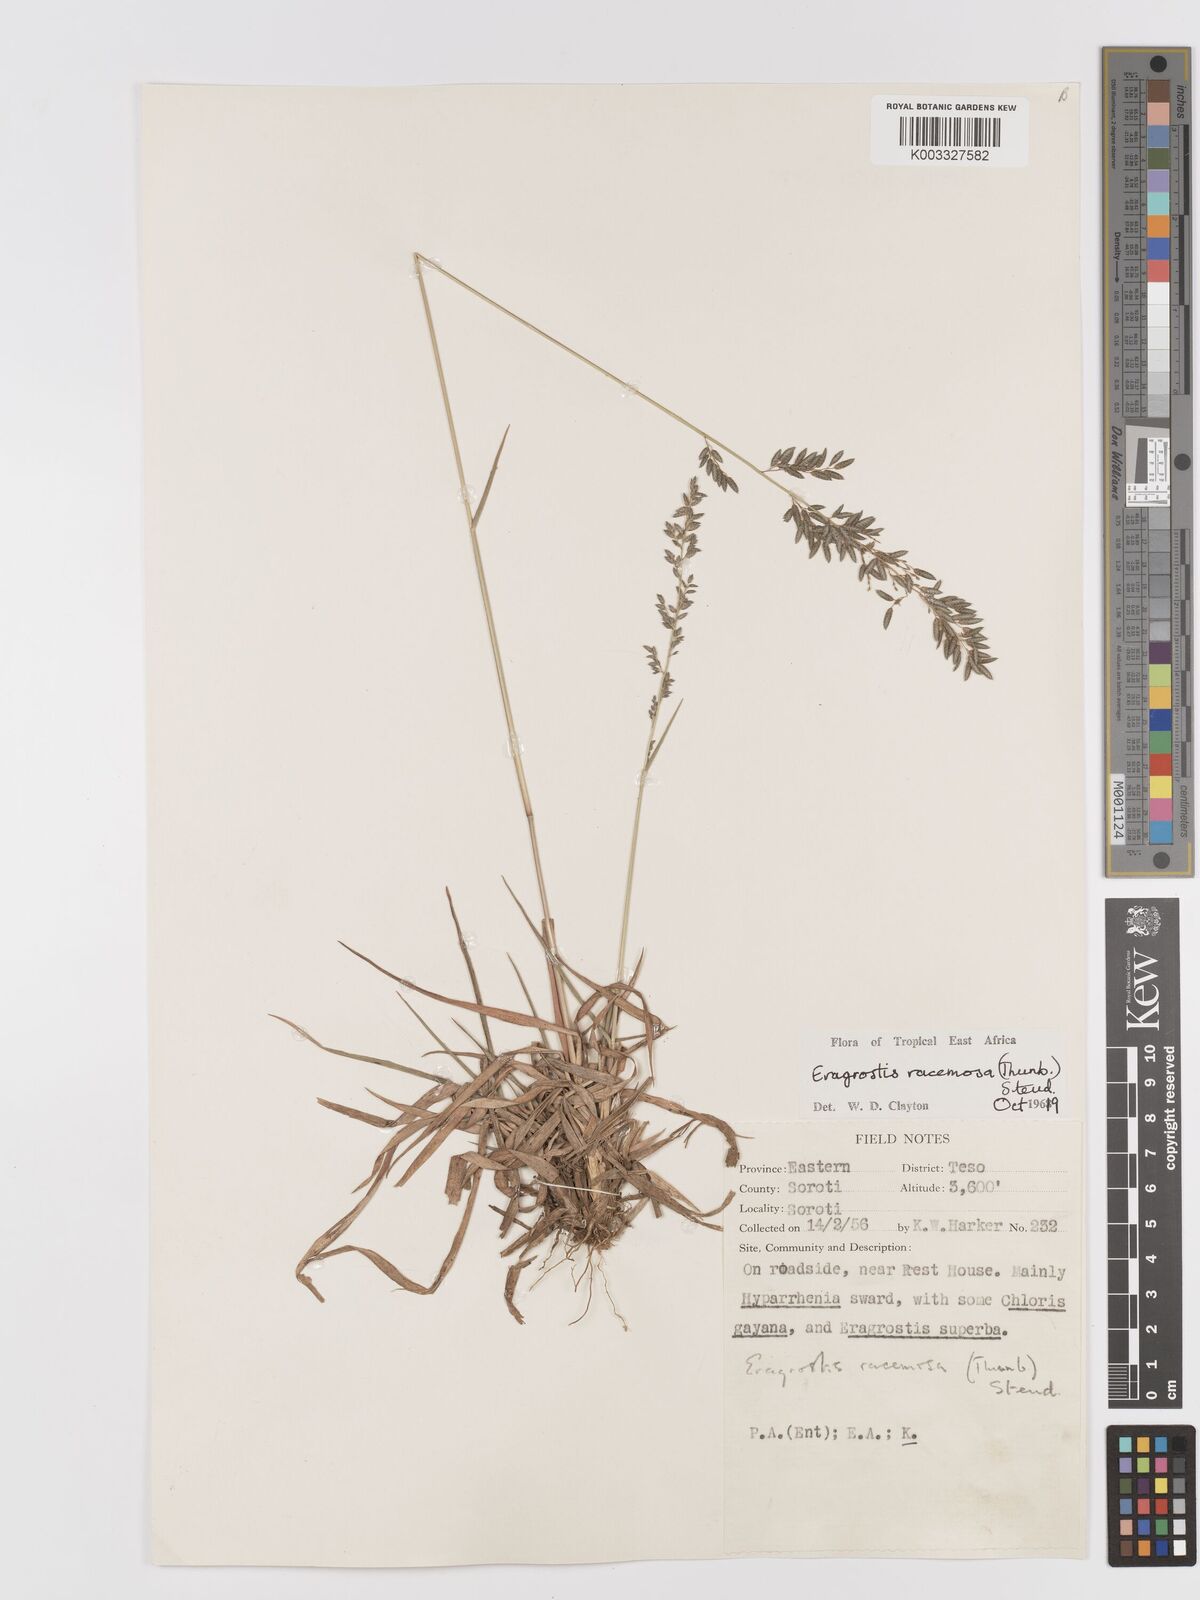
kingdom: Plantae
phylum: Tracheophyta
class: Liliopsida
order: Poales
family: Poaceae
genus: Eragrostis
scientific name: Eragrostis racemosa
